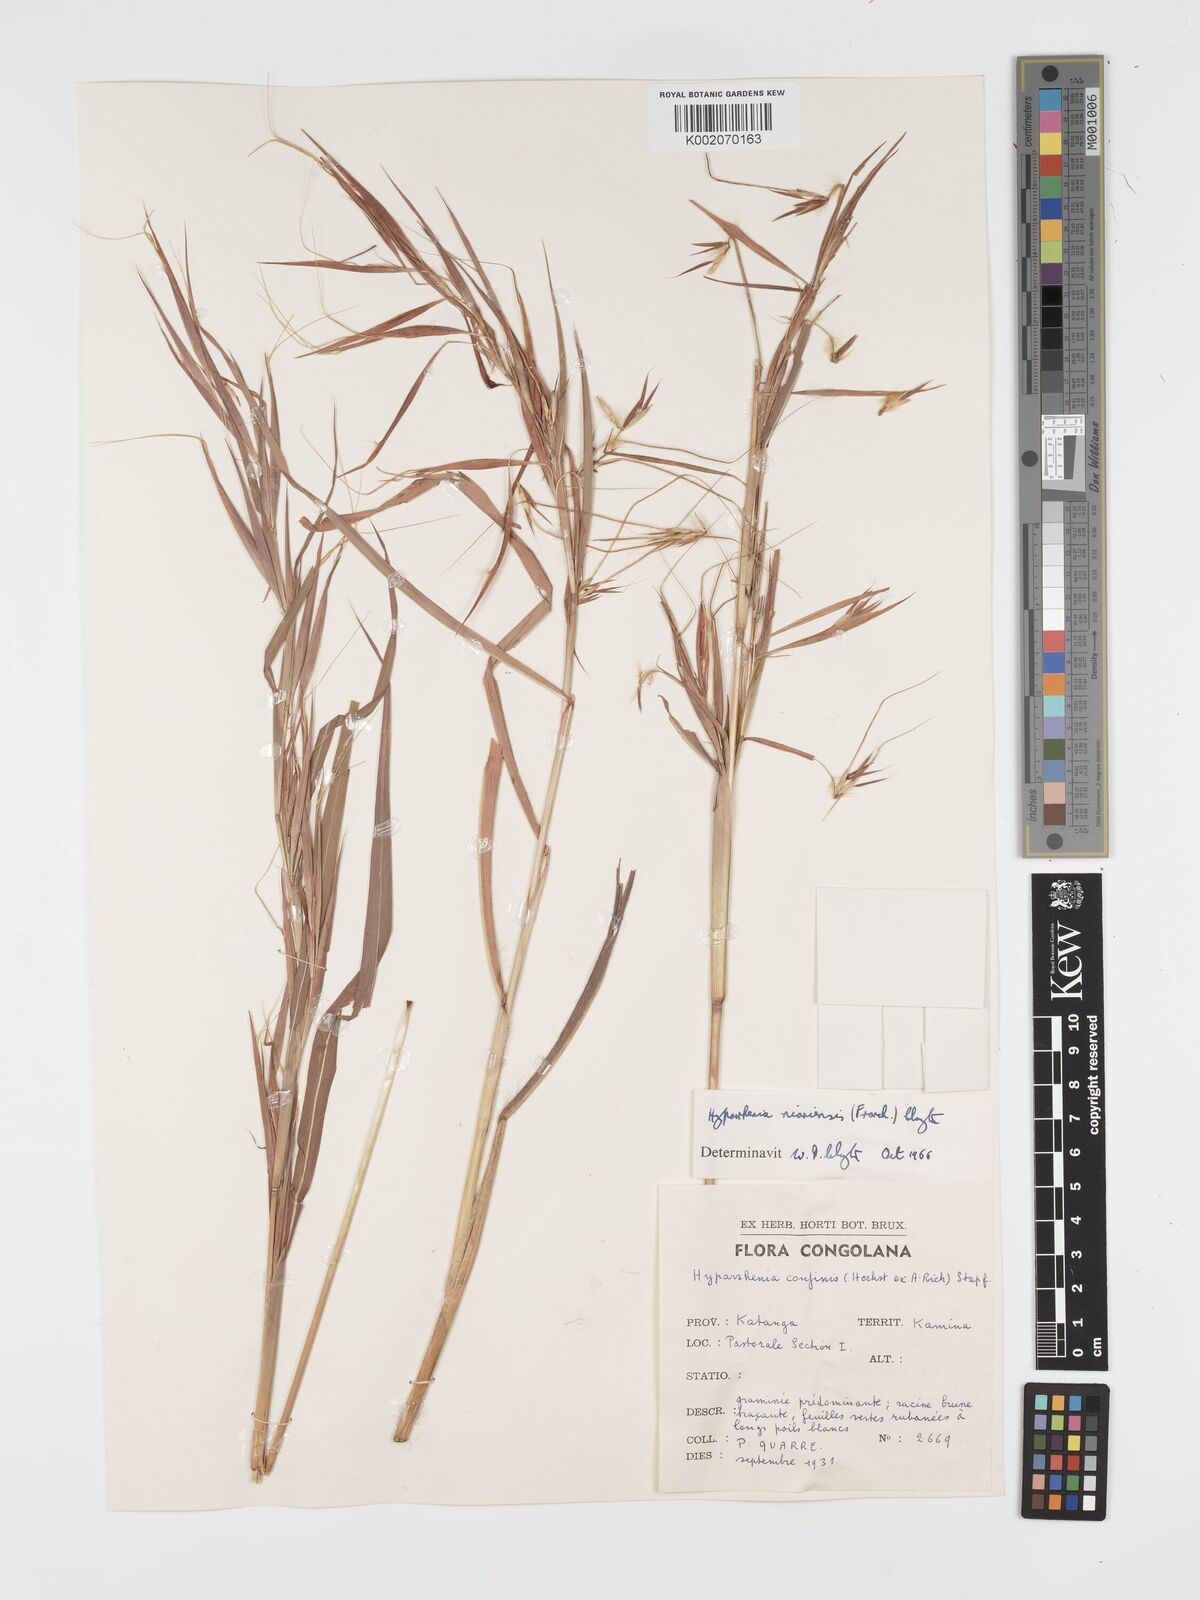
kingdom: Plantae
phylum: Tracheophyta
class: Liliopsida
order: Poales
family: Poaceae
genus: Hyparrhenia
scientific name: Hyparrhenia niariensis
